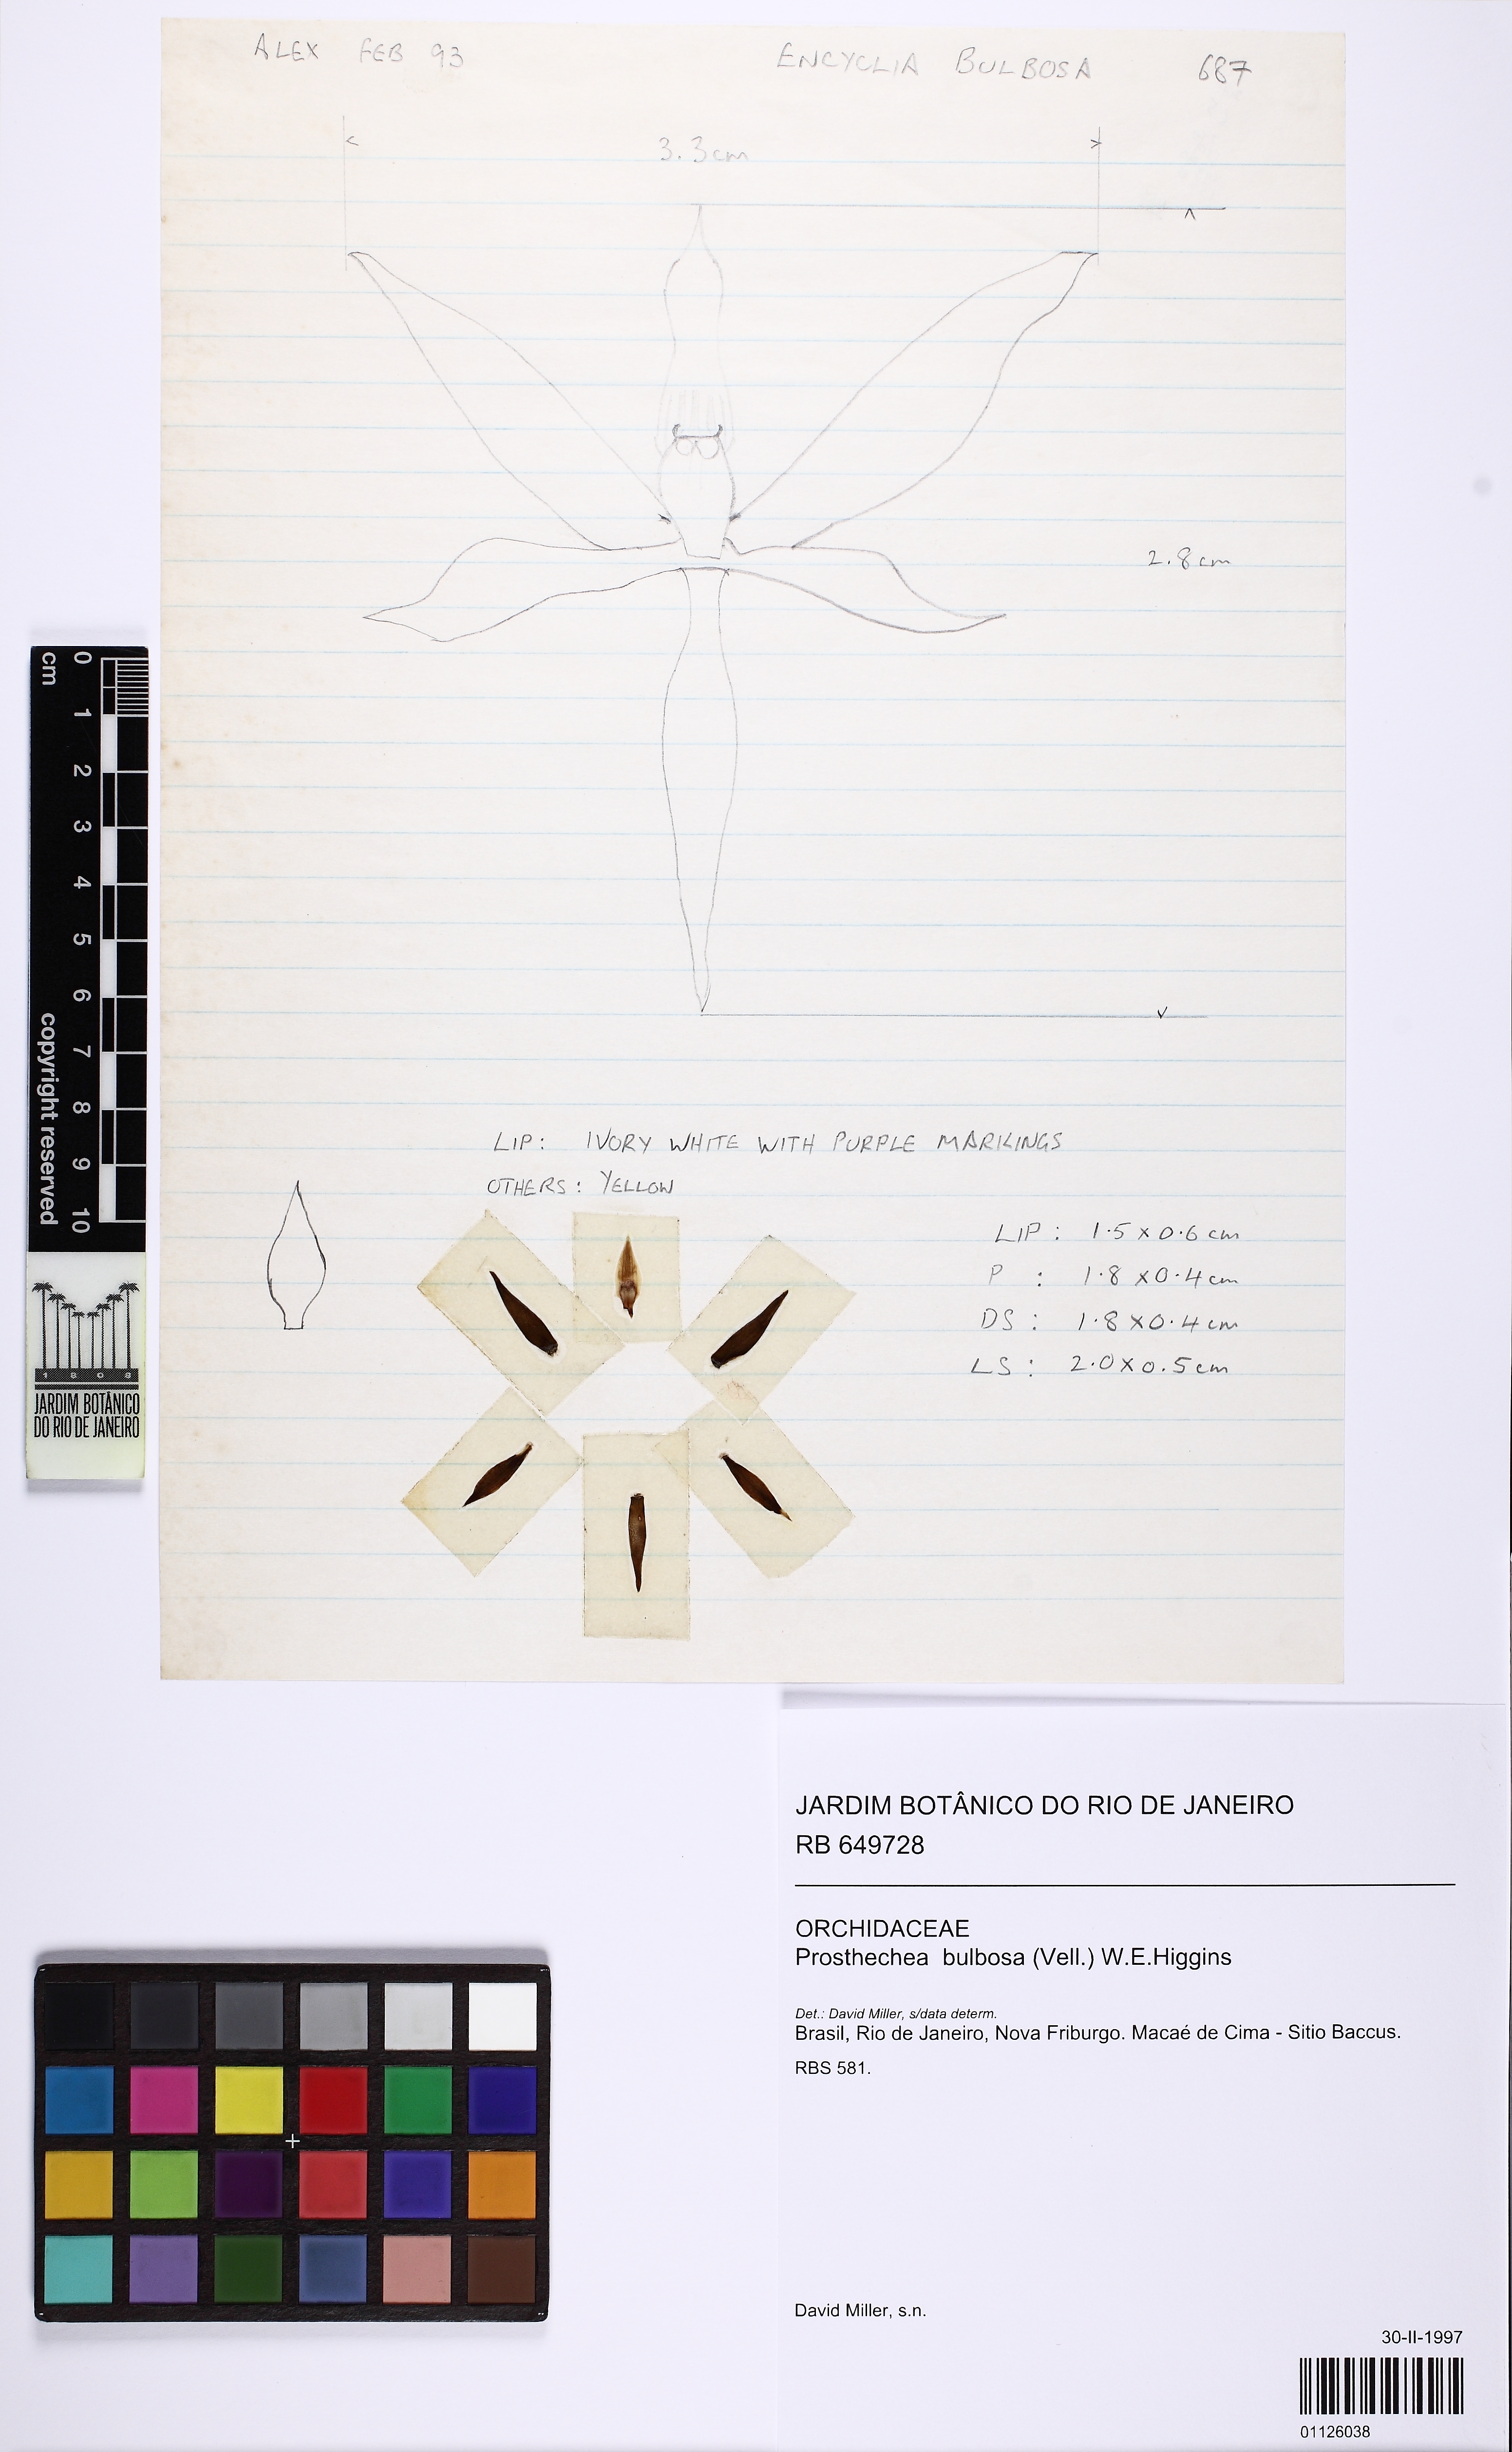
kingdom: Plantae
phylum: Tracheophyta
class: Liliopsida
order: Asparagales
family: Orchidaceae
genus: Prosthechea
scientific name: Prosthechea bulbosa
